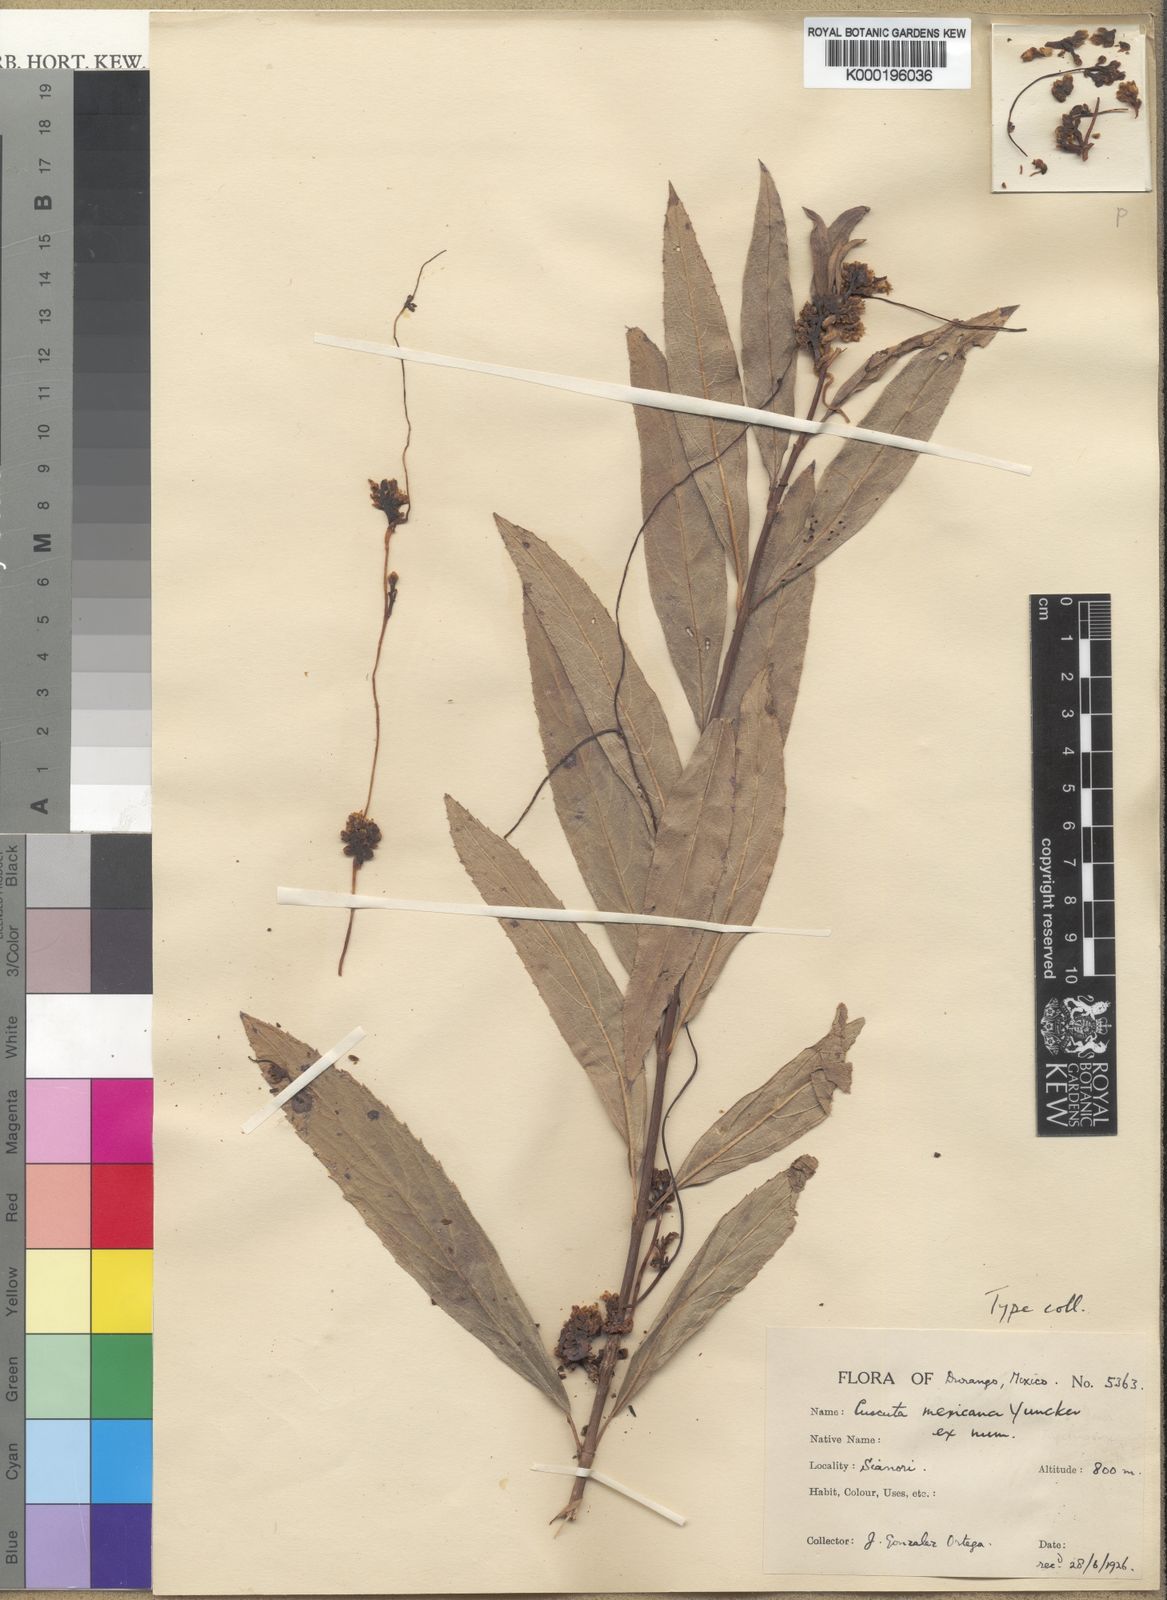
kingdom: Plantae
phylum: Tracheophyta
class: Magnoliopsida
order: Solanales
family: Convolvulaceae
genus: Cuscuta
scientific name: Cuscuta mexicana
